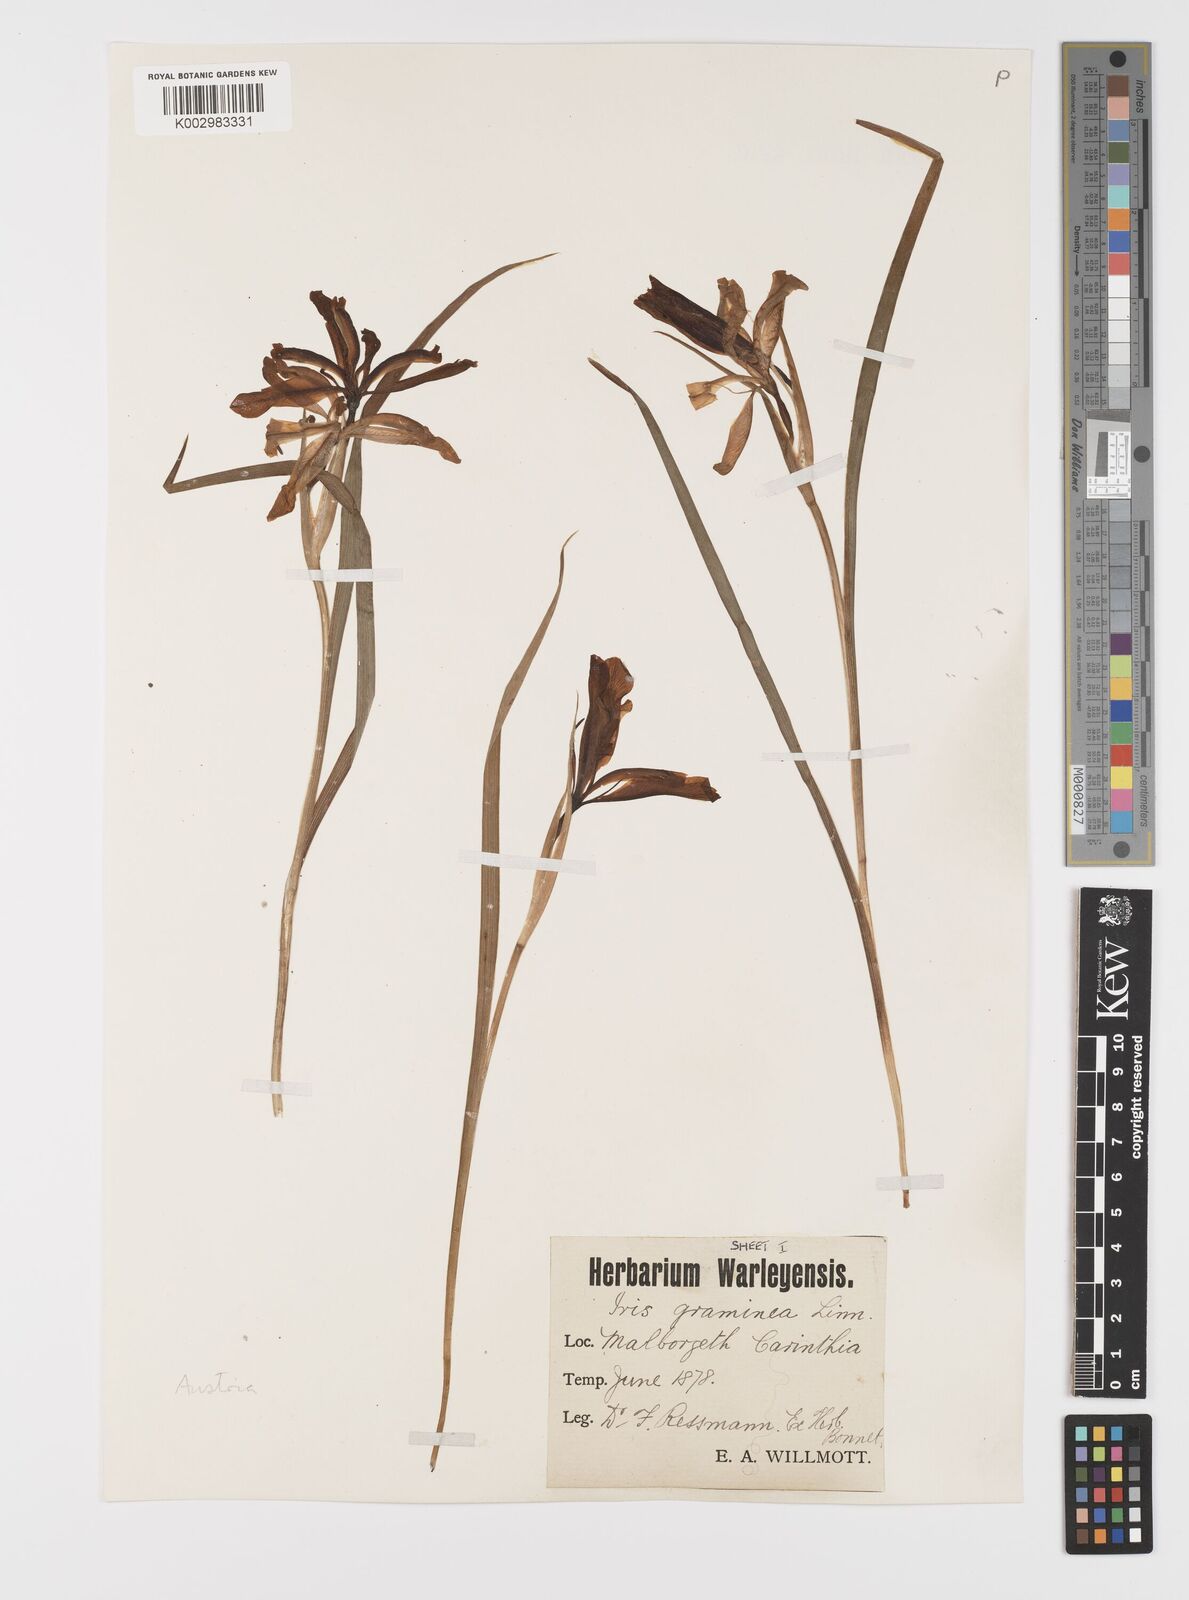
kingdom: Plantae
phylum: Tracheophyta
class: Liliopsida
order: Asparagales
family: Iridaceae
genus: Iris
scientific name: Iris graminea
